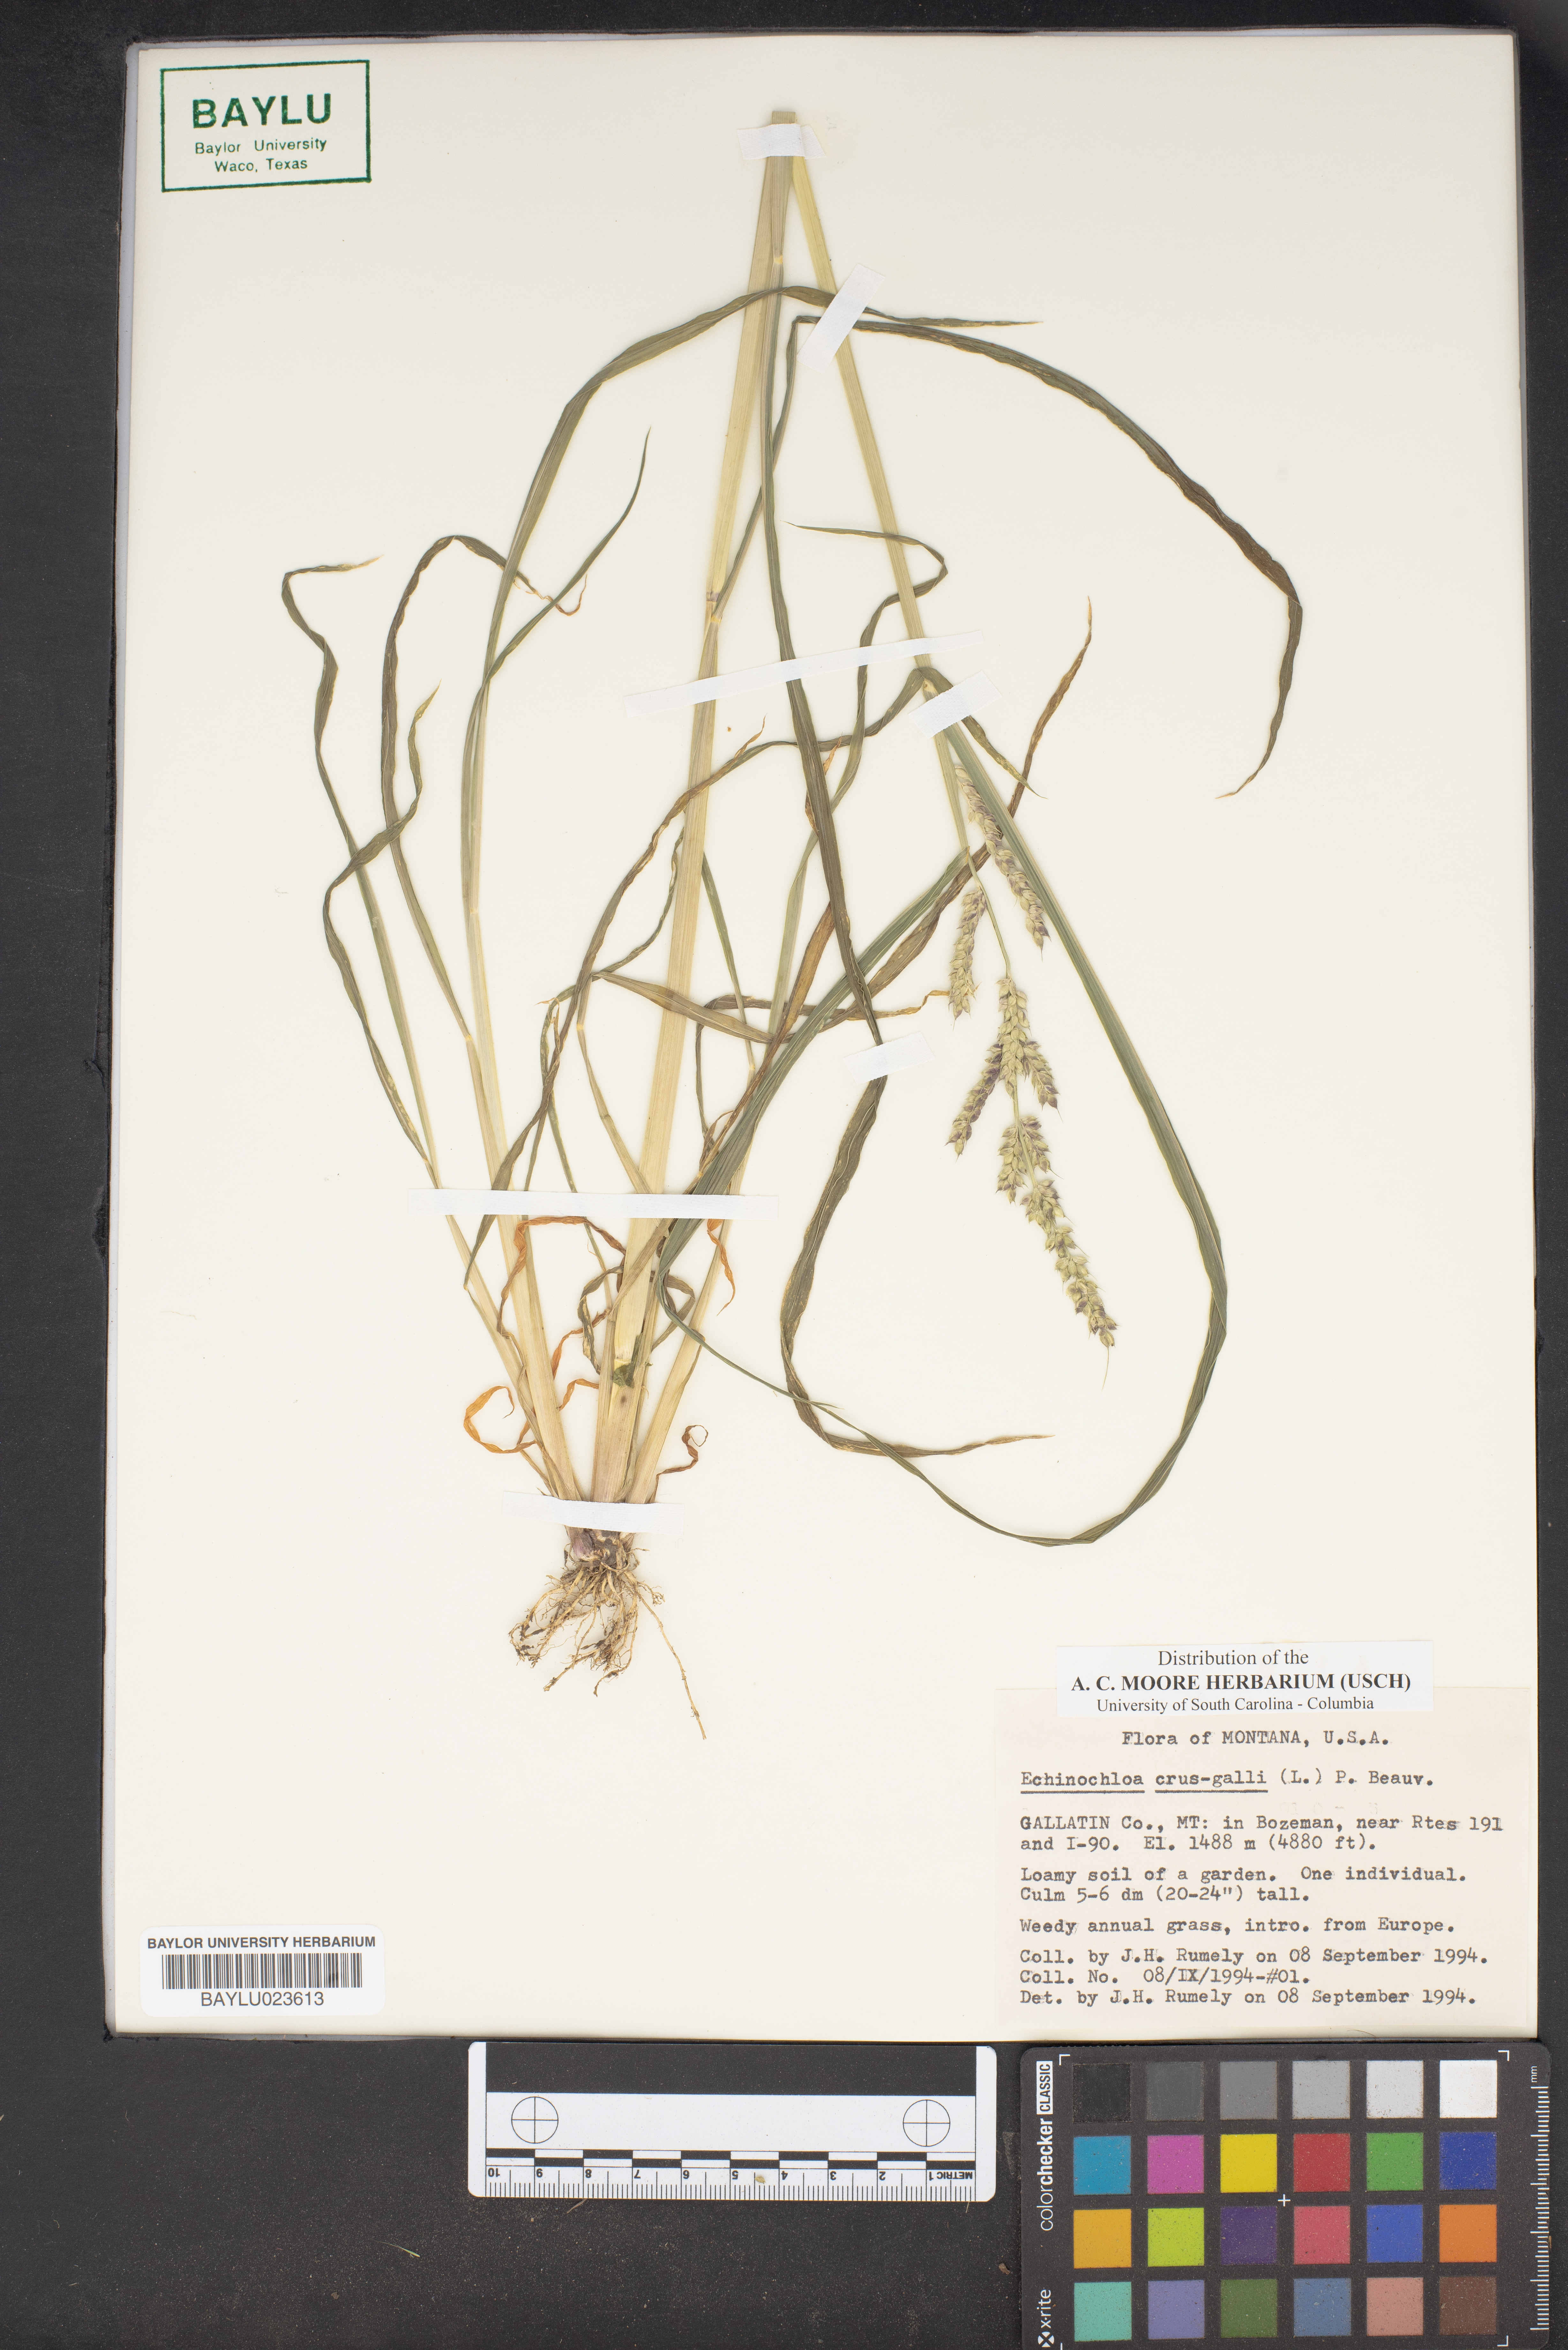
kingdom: Plantae
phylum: Tracheophyta
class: Liliopsida
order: Poales
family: Poaceae
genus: Echinochloa
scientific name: Echinochloa crus-galli
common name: Cockspur
